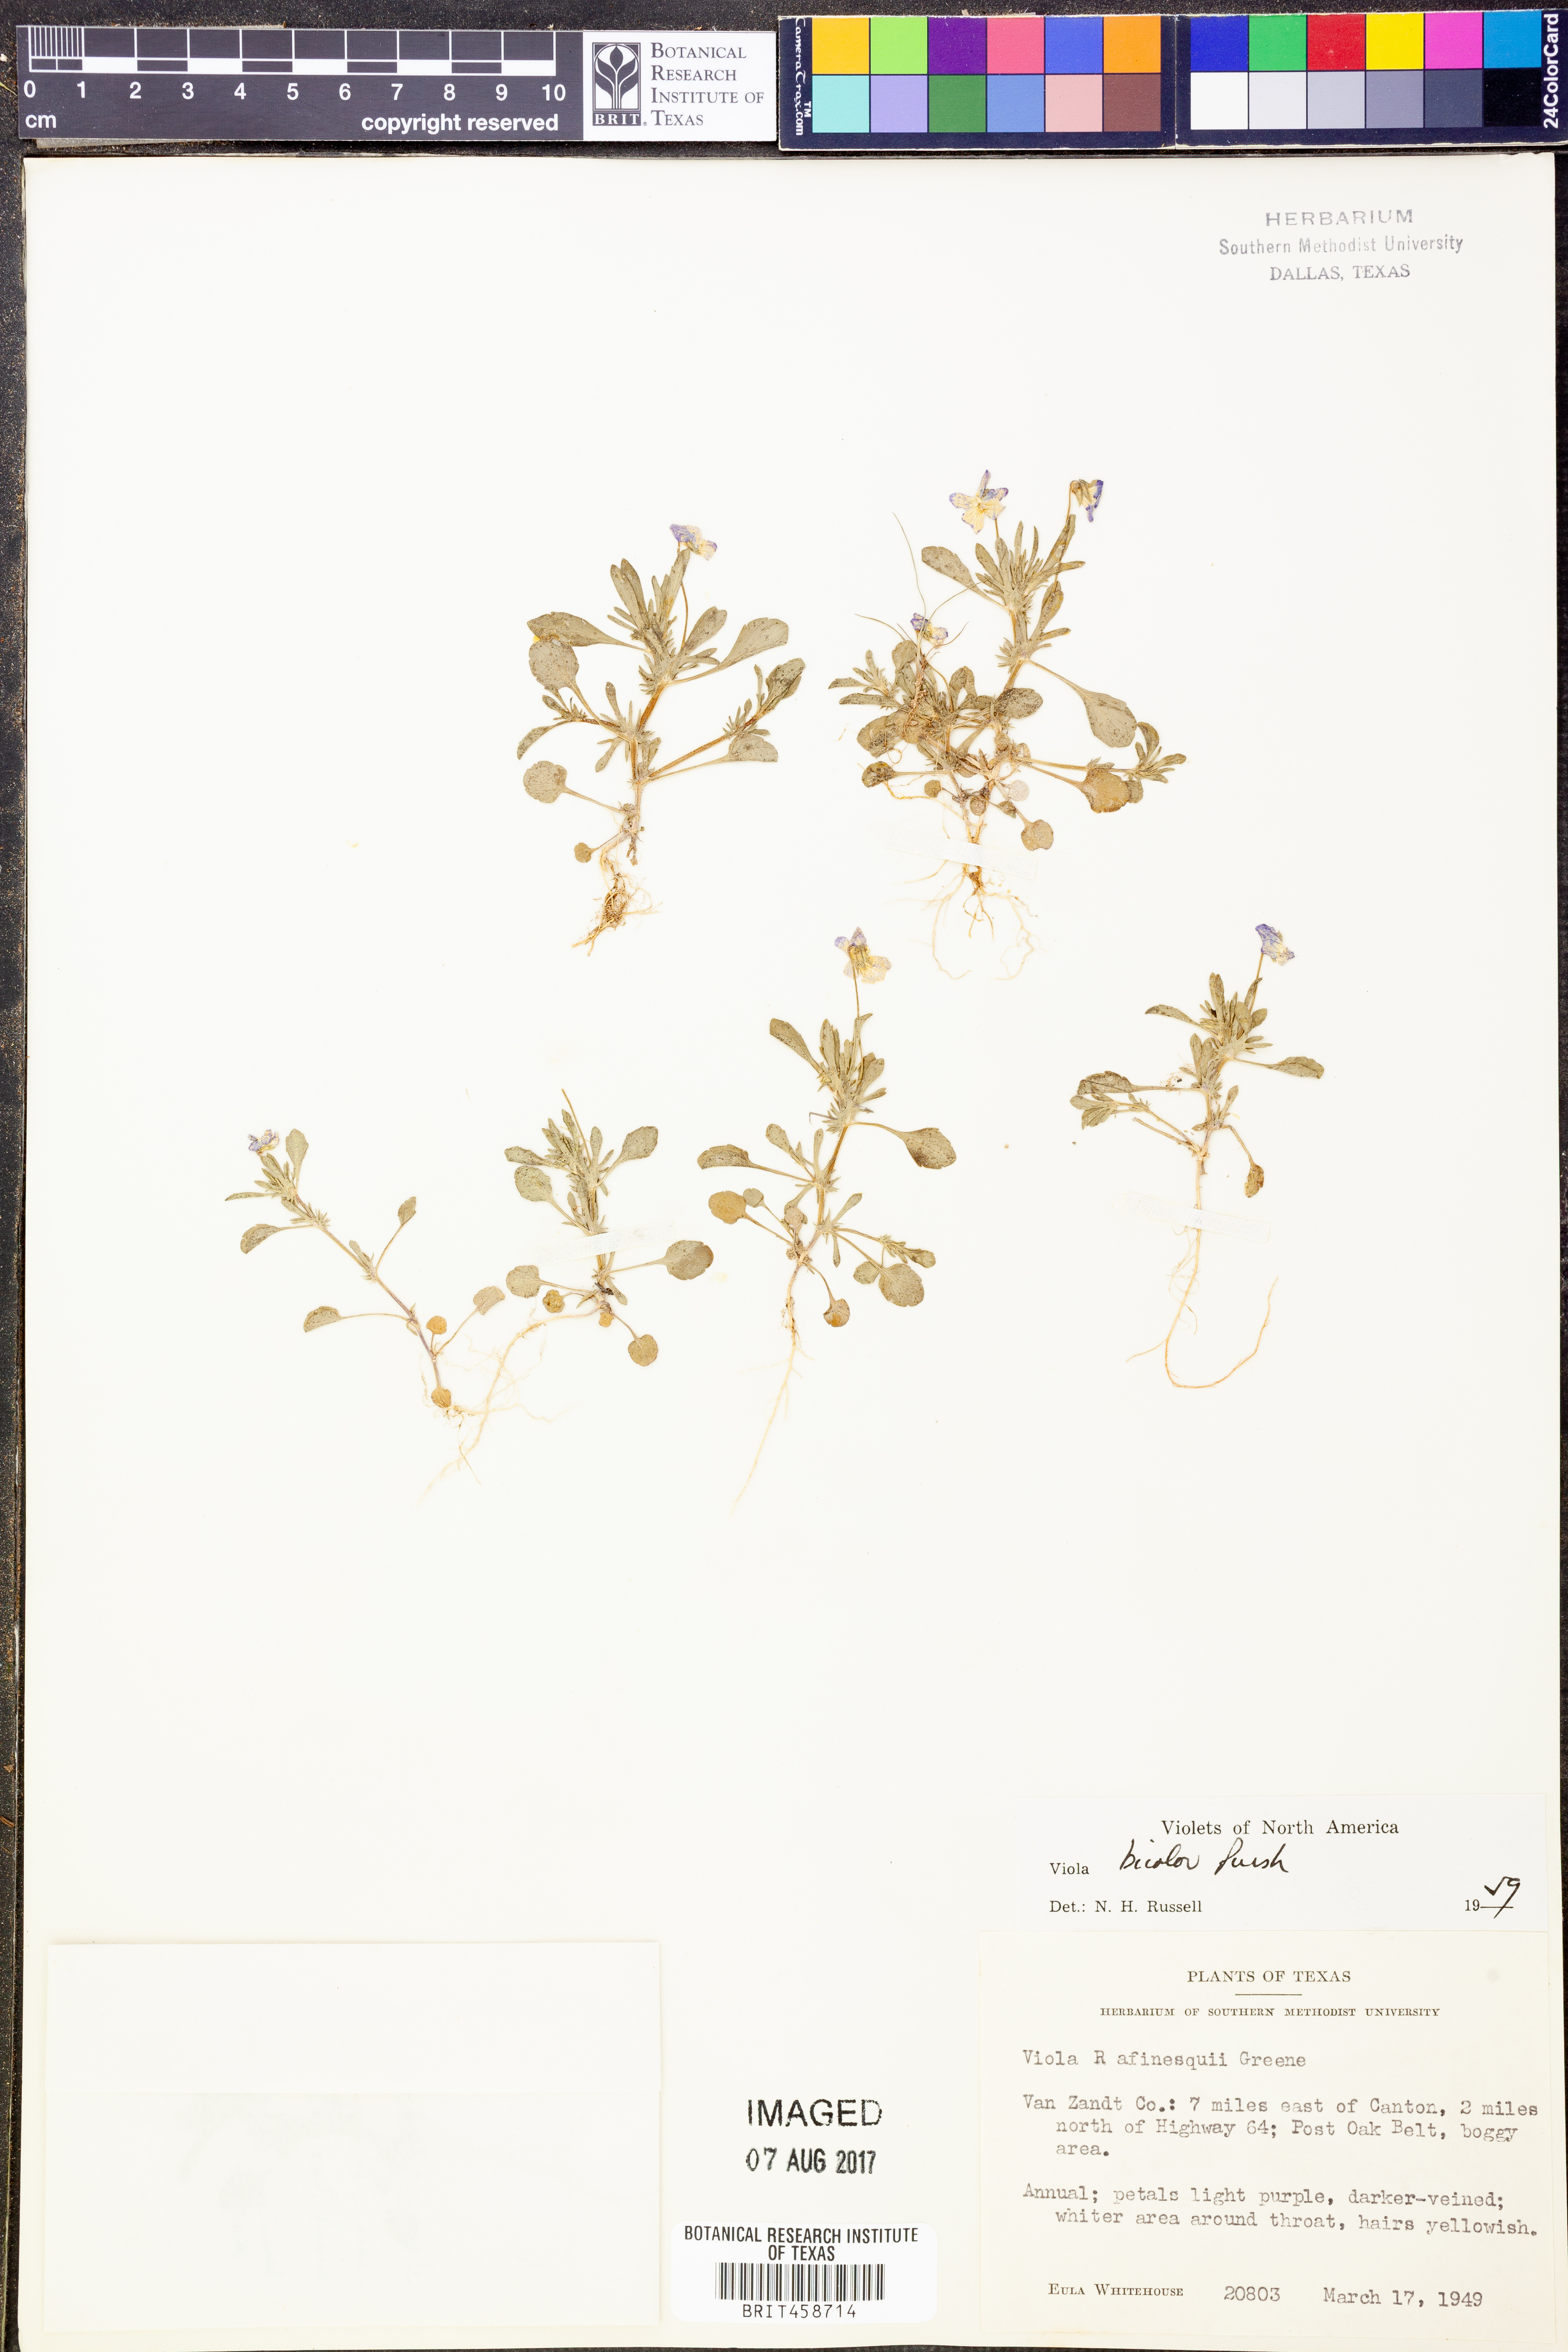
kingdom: Plantae
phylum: Tracheophyta
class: Magnoliopsida
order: Malpighiales
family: Violaceae
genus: Viola
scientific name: Viola rafinesquei
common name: American field pansy
